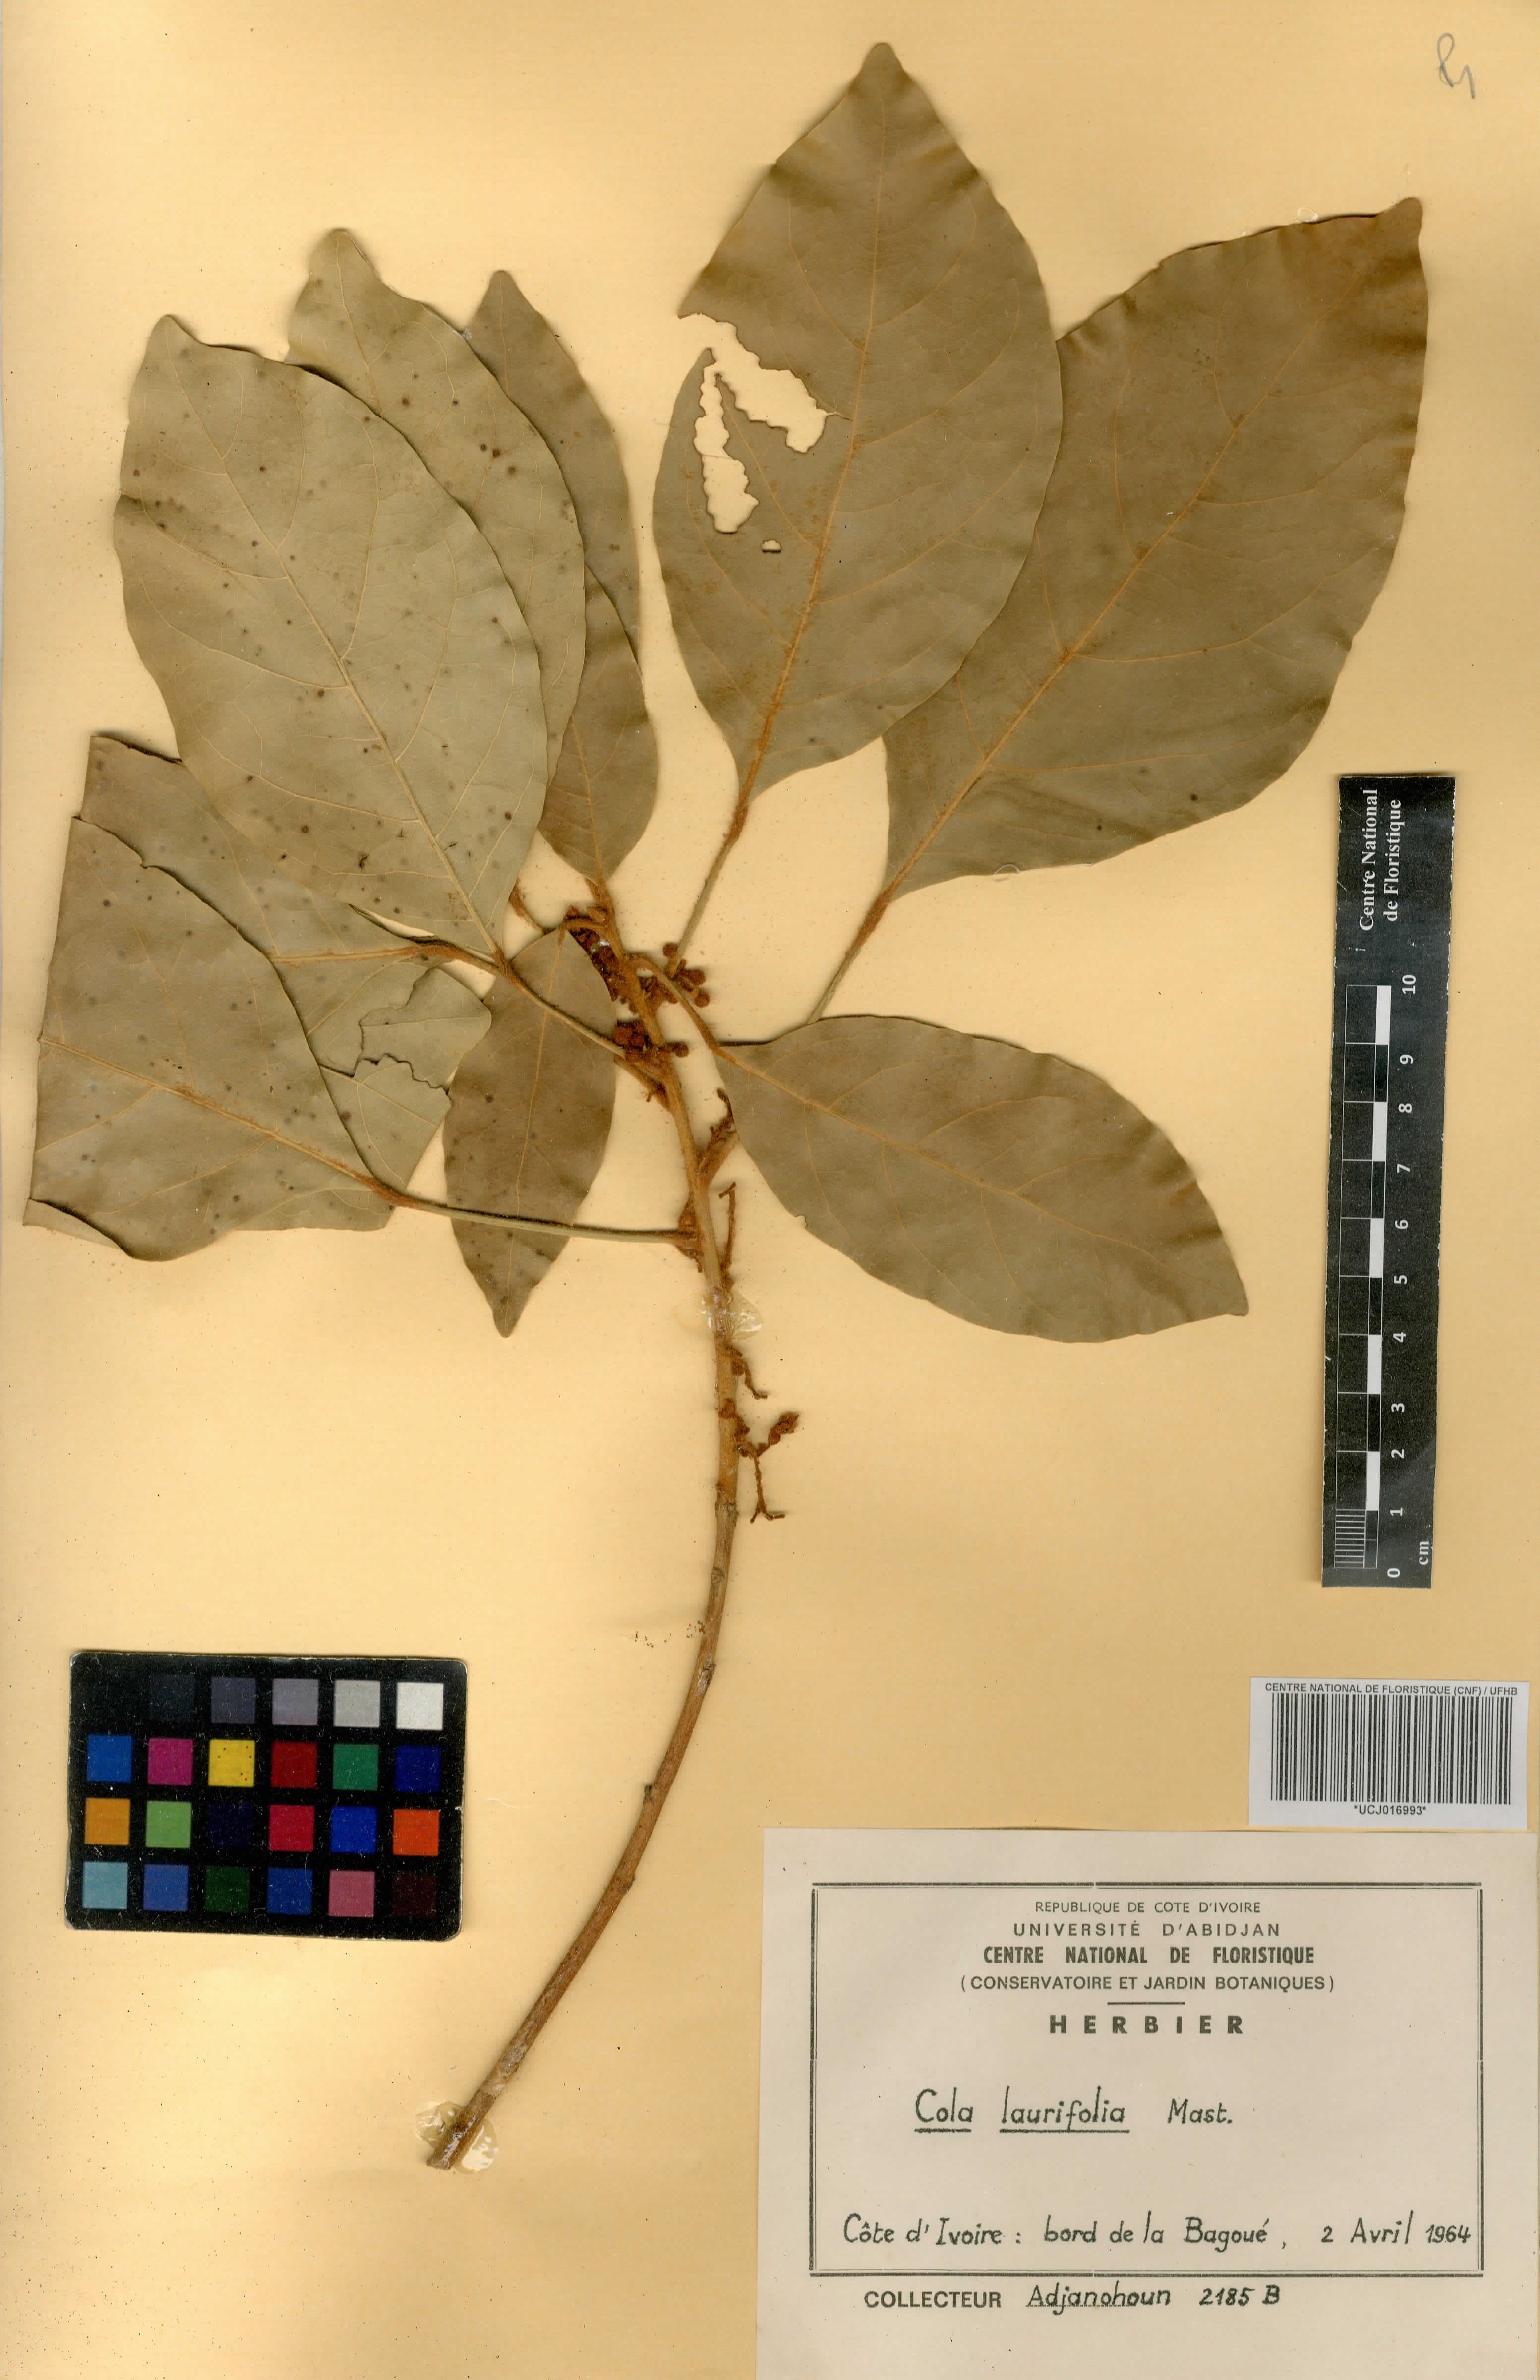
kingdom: Plantae
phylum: Tracheophyta
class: Magnoliopsida
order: Malvales
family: Malvaceae
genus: Cola
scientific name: Cola laurifolia
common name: Laurel-leaved kola
